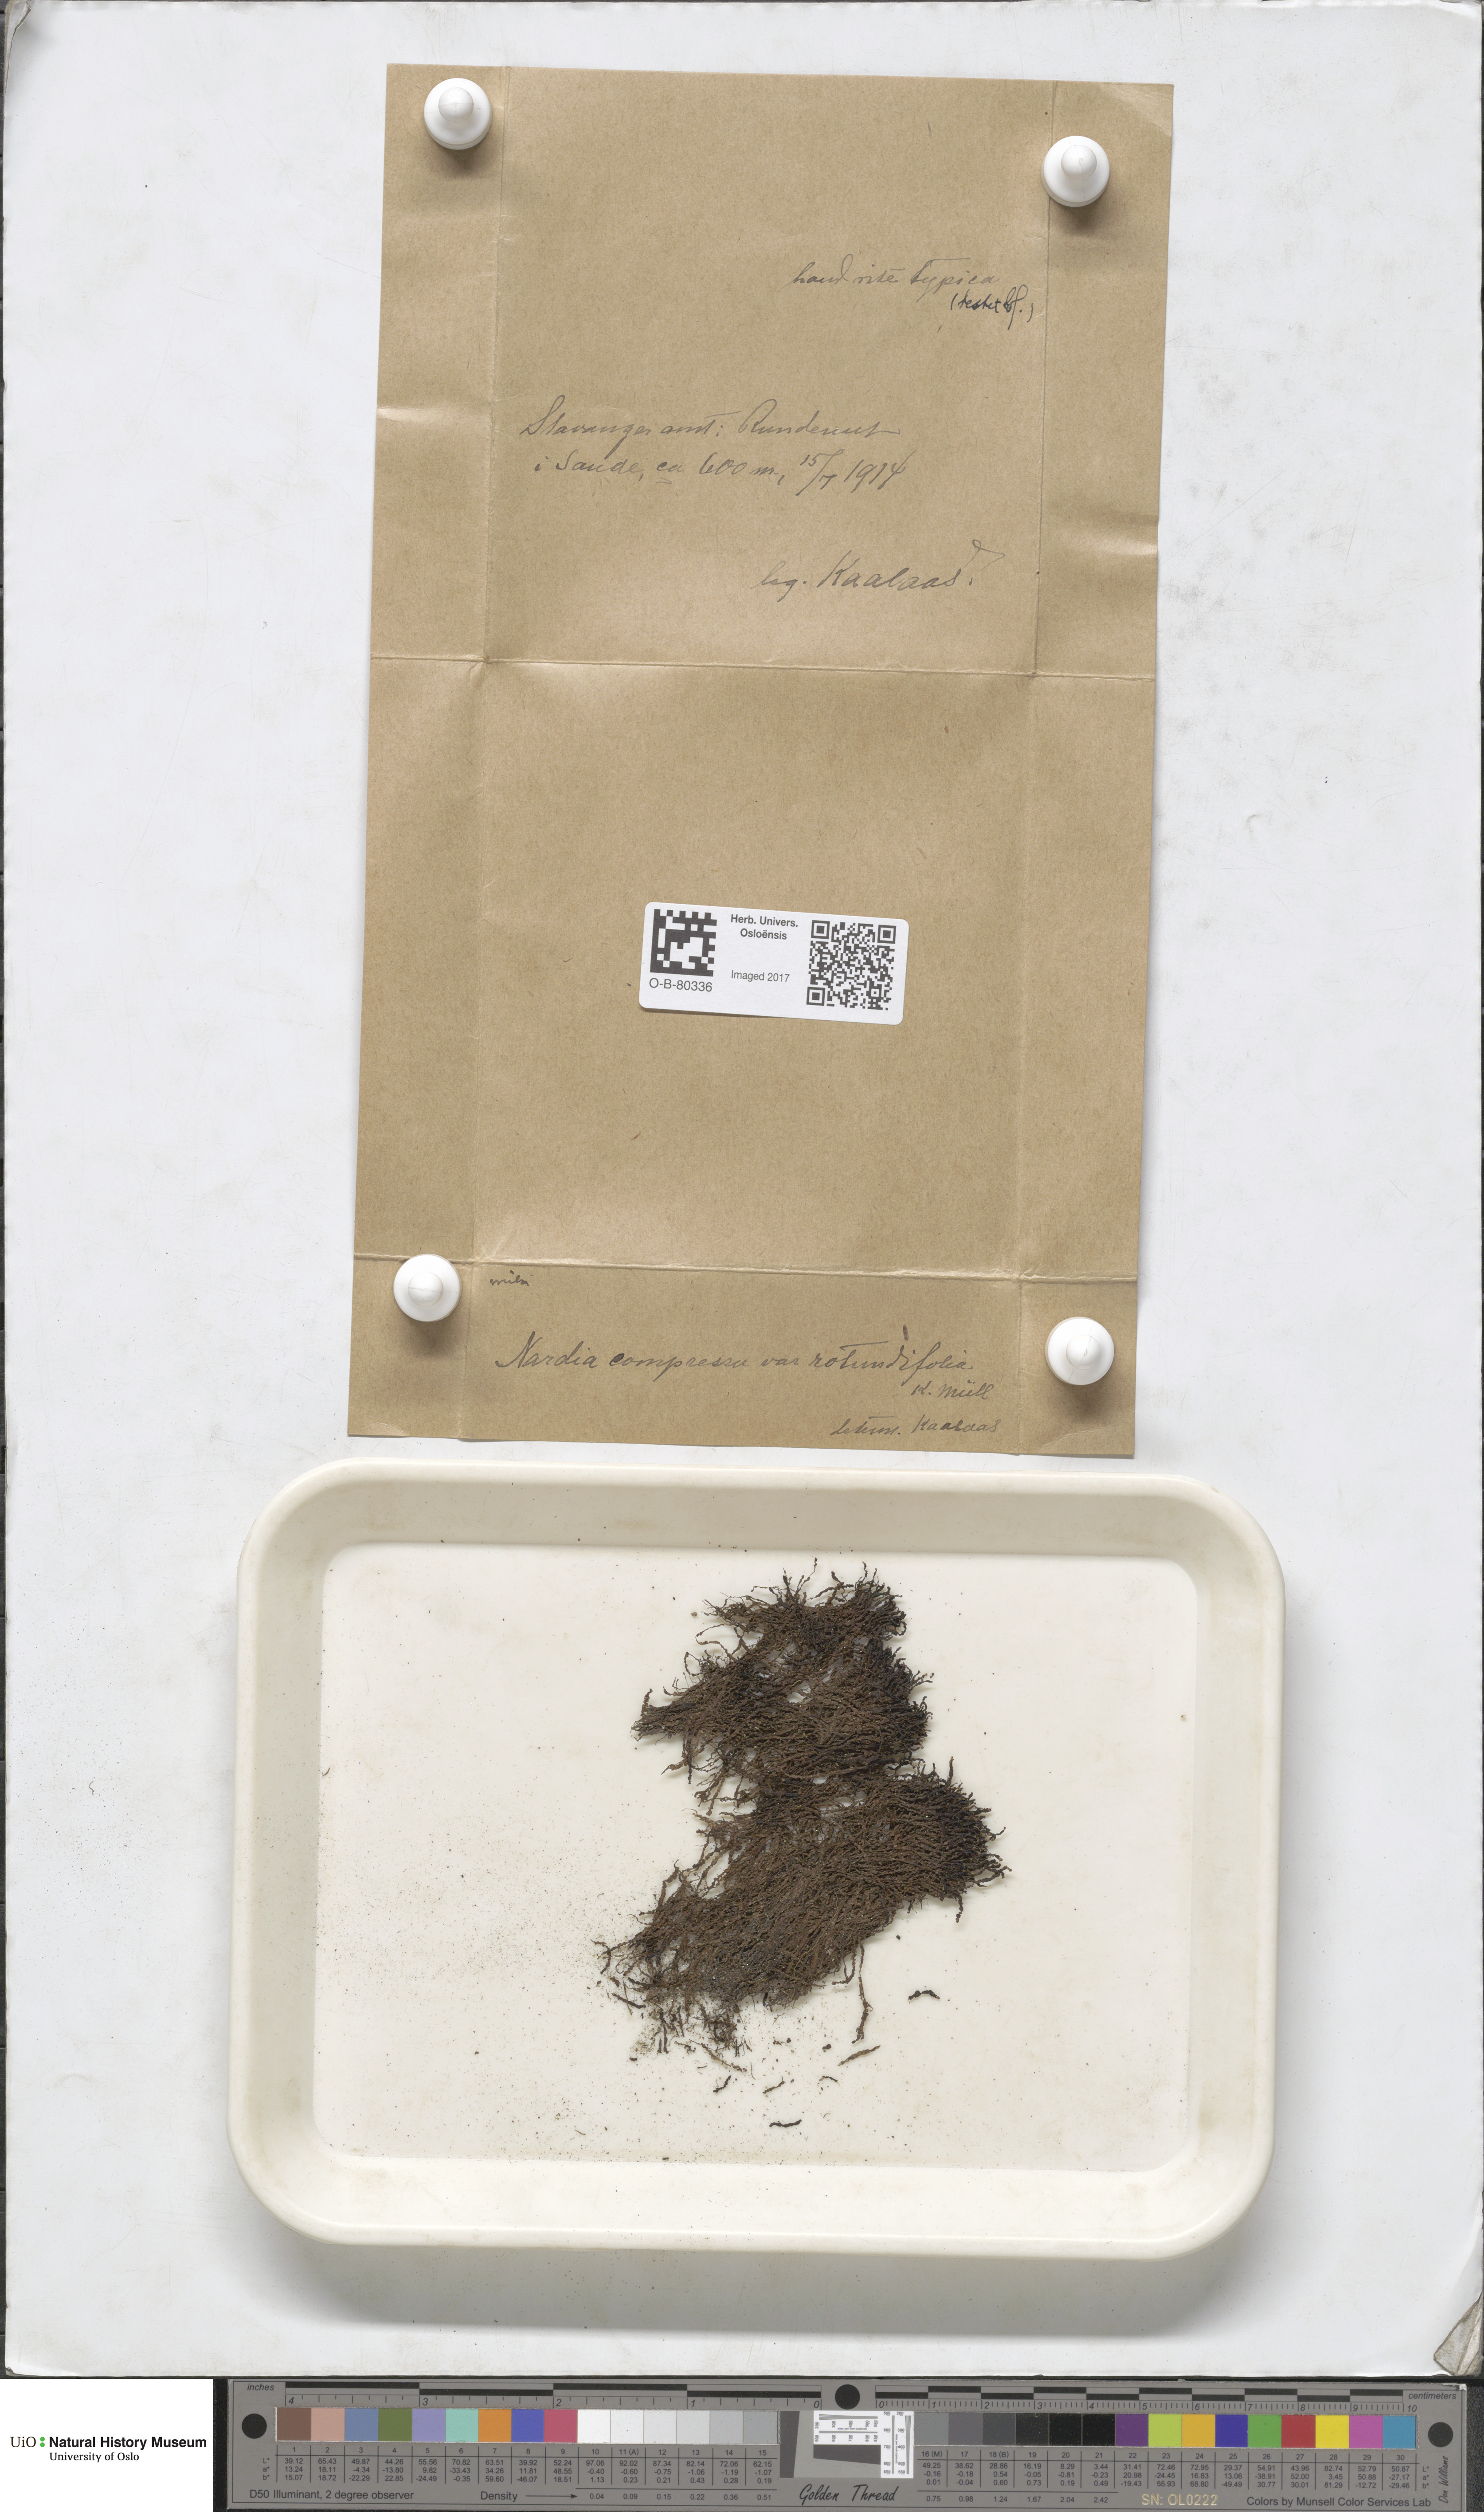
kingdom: Plantae
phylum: Marchantiophyta
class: Jungermanniopsida
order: Jungermanniales
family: Gymnomitriaceae
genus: Nardia
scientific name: Nardia compressa
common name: Compressed flapwort
